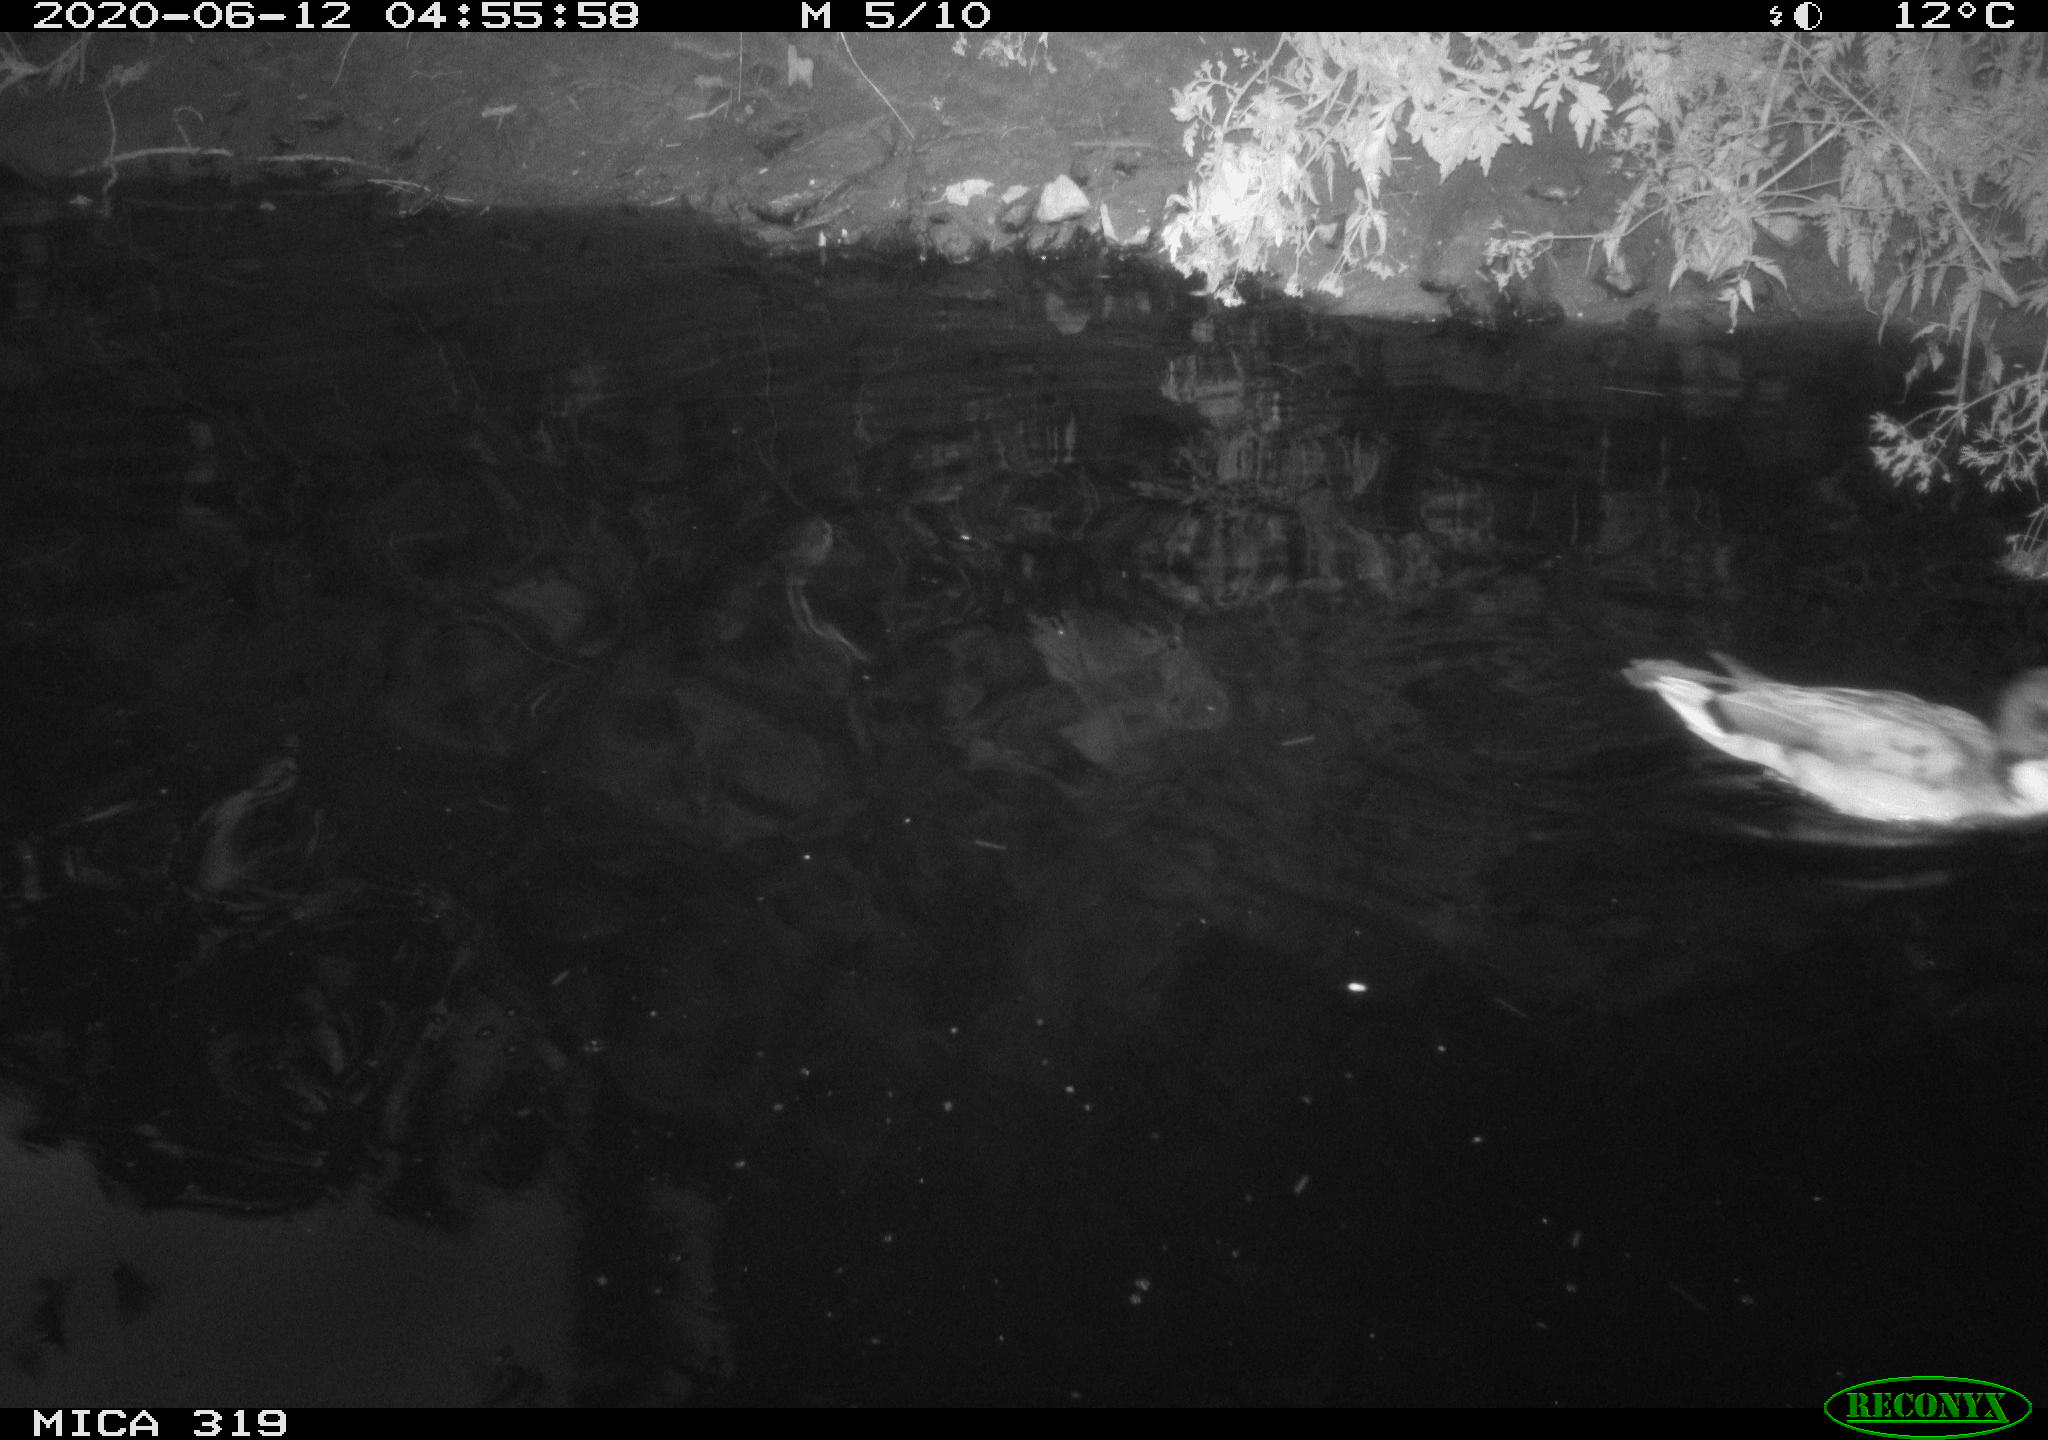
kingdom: Animalia
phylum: Chordata
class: Aves
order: Anseriformes
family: Anatidae
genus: Anas
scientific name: Anas platyrhynchos
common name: Mallard
